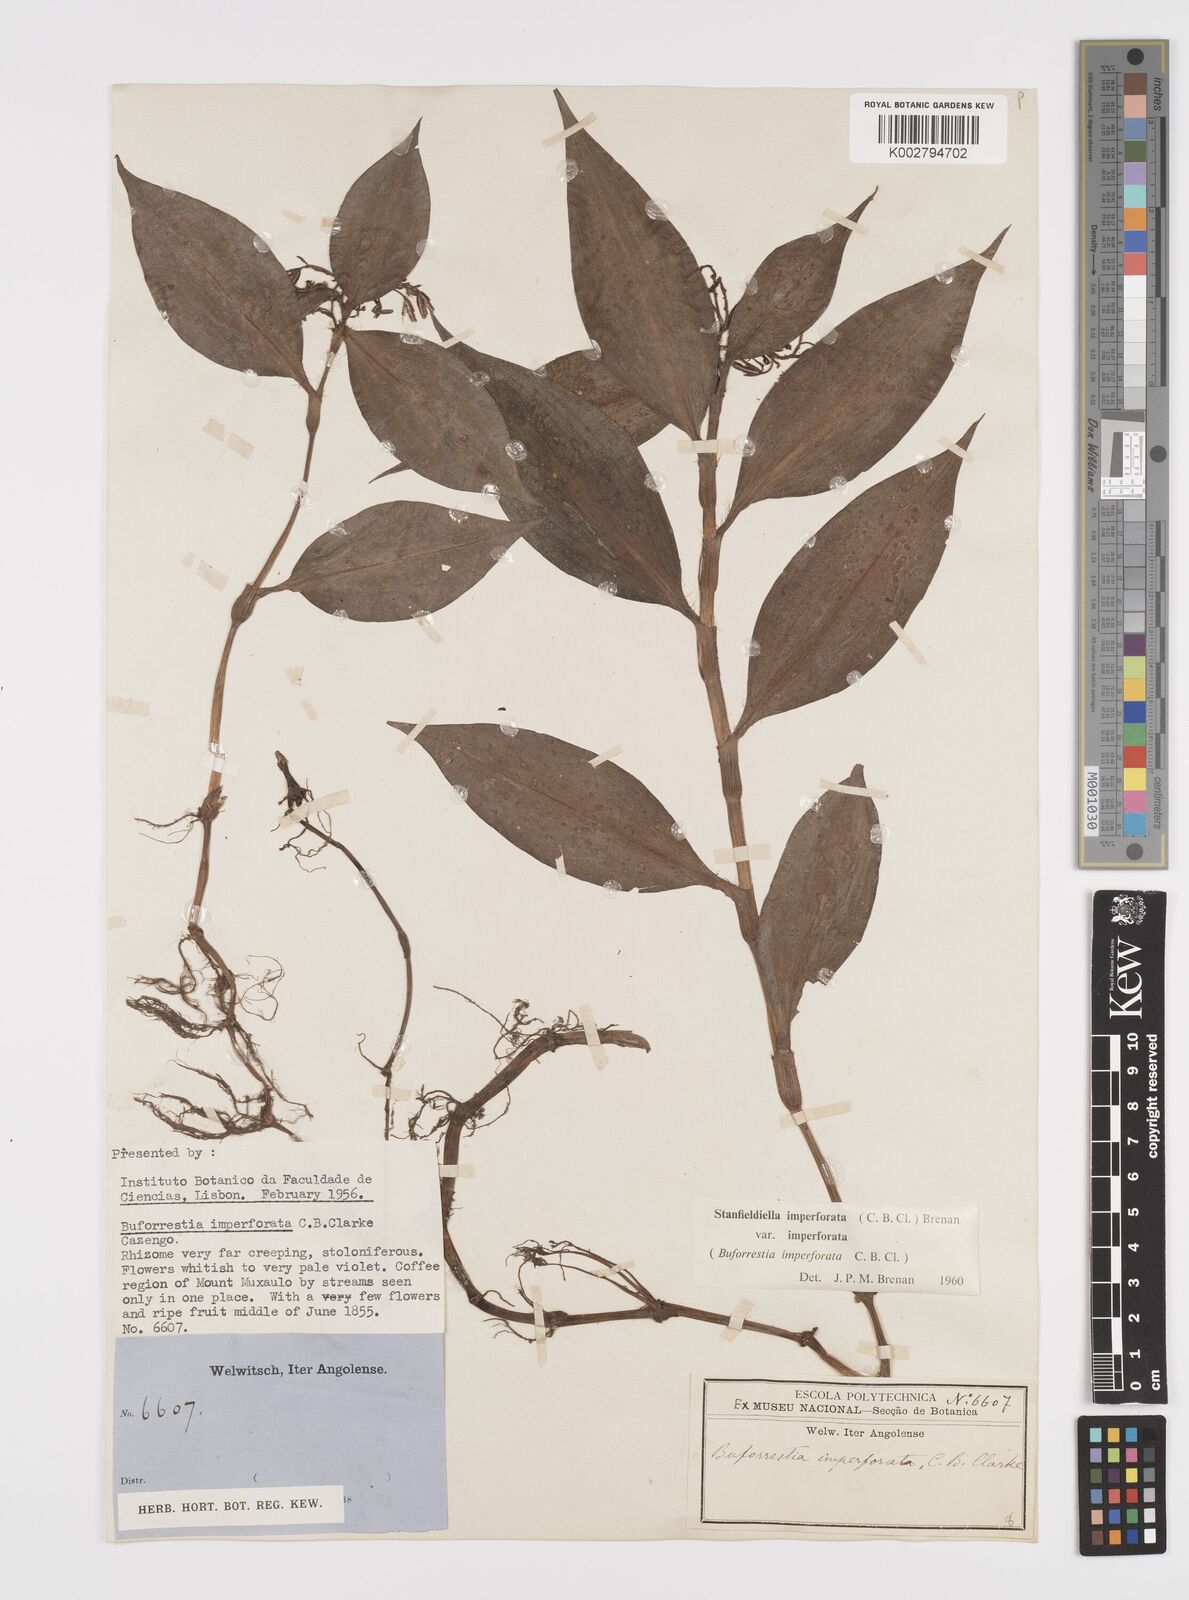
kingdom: Plantae
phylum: Tracheophyta
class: Liliopsida
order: Commelinales
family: Commelinaceae
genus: Stanfieldiella
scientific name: Stanfieldiella imperforata
